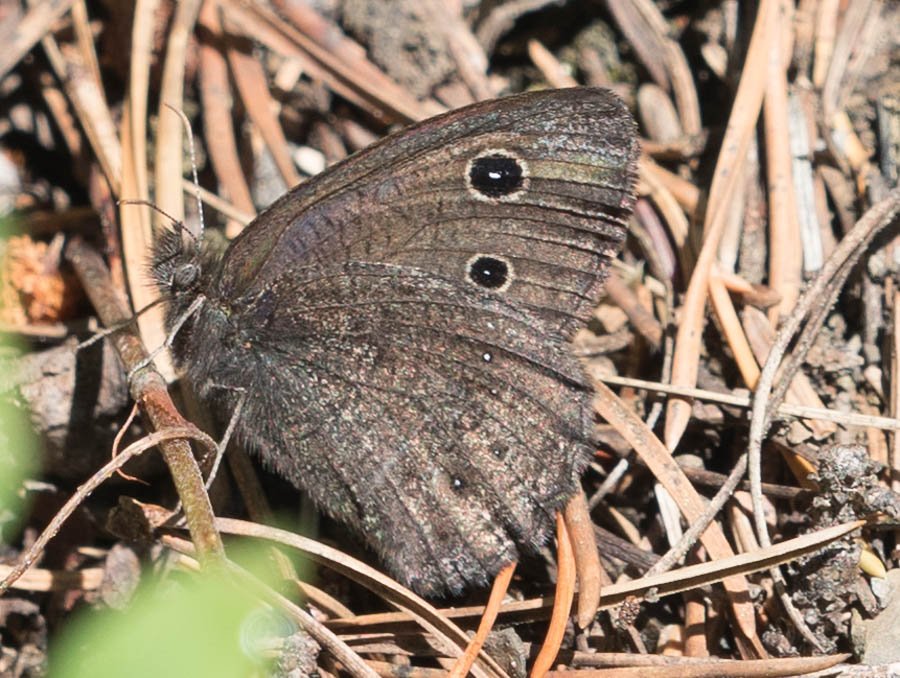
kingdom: Animalia
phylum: Arthropoda
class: Insecta
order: Lepidoptera
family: Nymphalidae
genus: Cercyonis
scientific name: Cercyonis oetus
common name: Small Wood-Nymph
